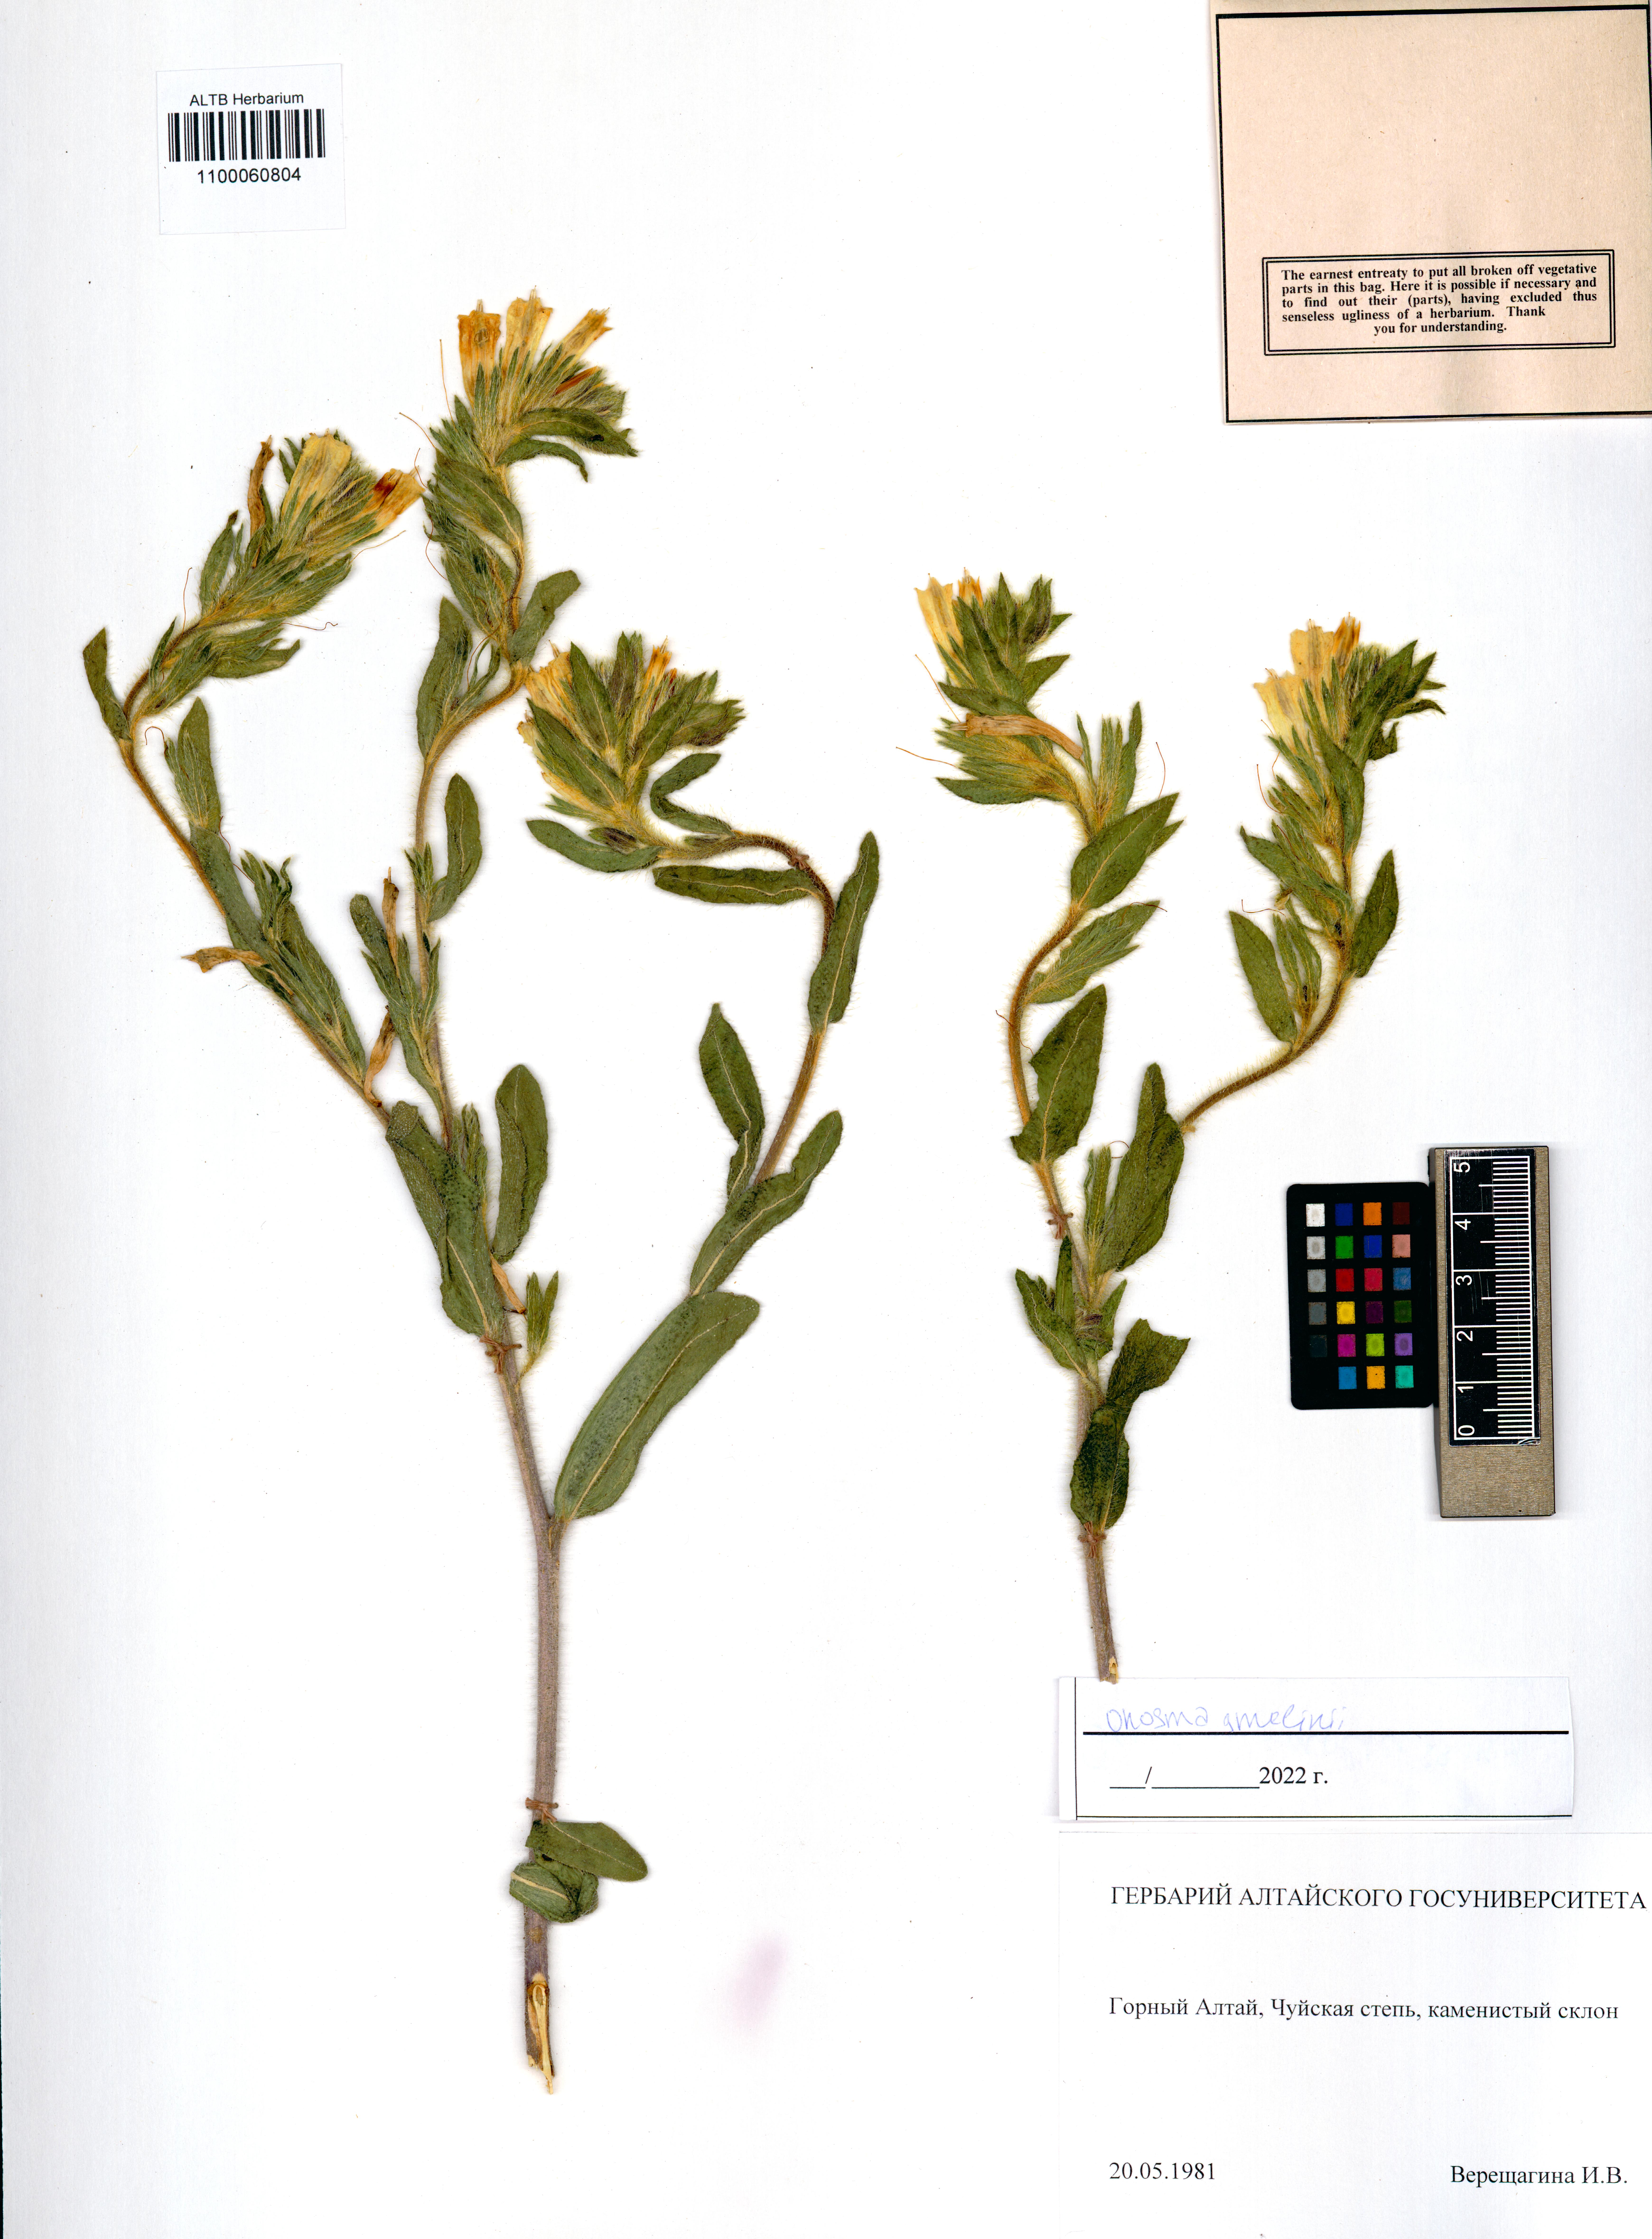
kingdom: Plantae
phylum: Tracheophyta
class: Magnoliopsida
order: Boraginales
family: Boraginaceae
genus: Onosma
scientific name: Onosma gmelinii
